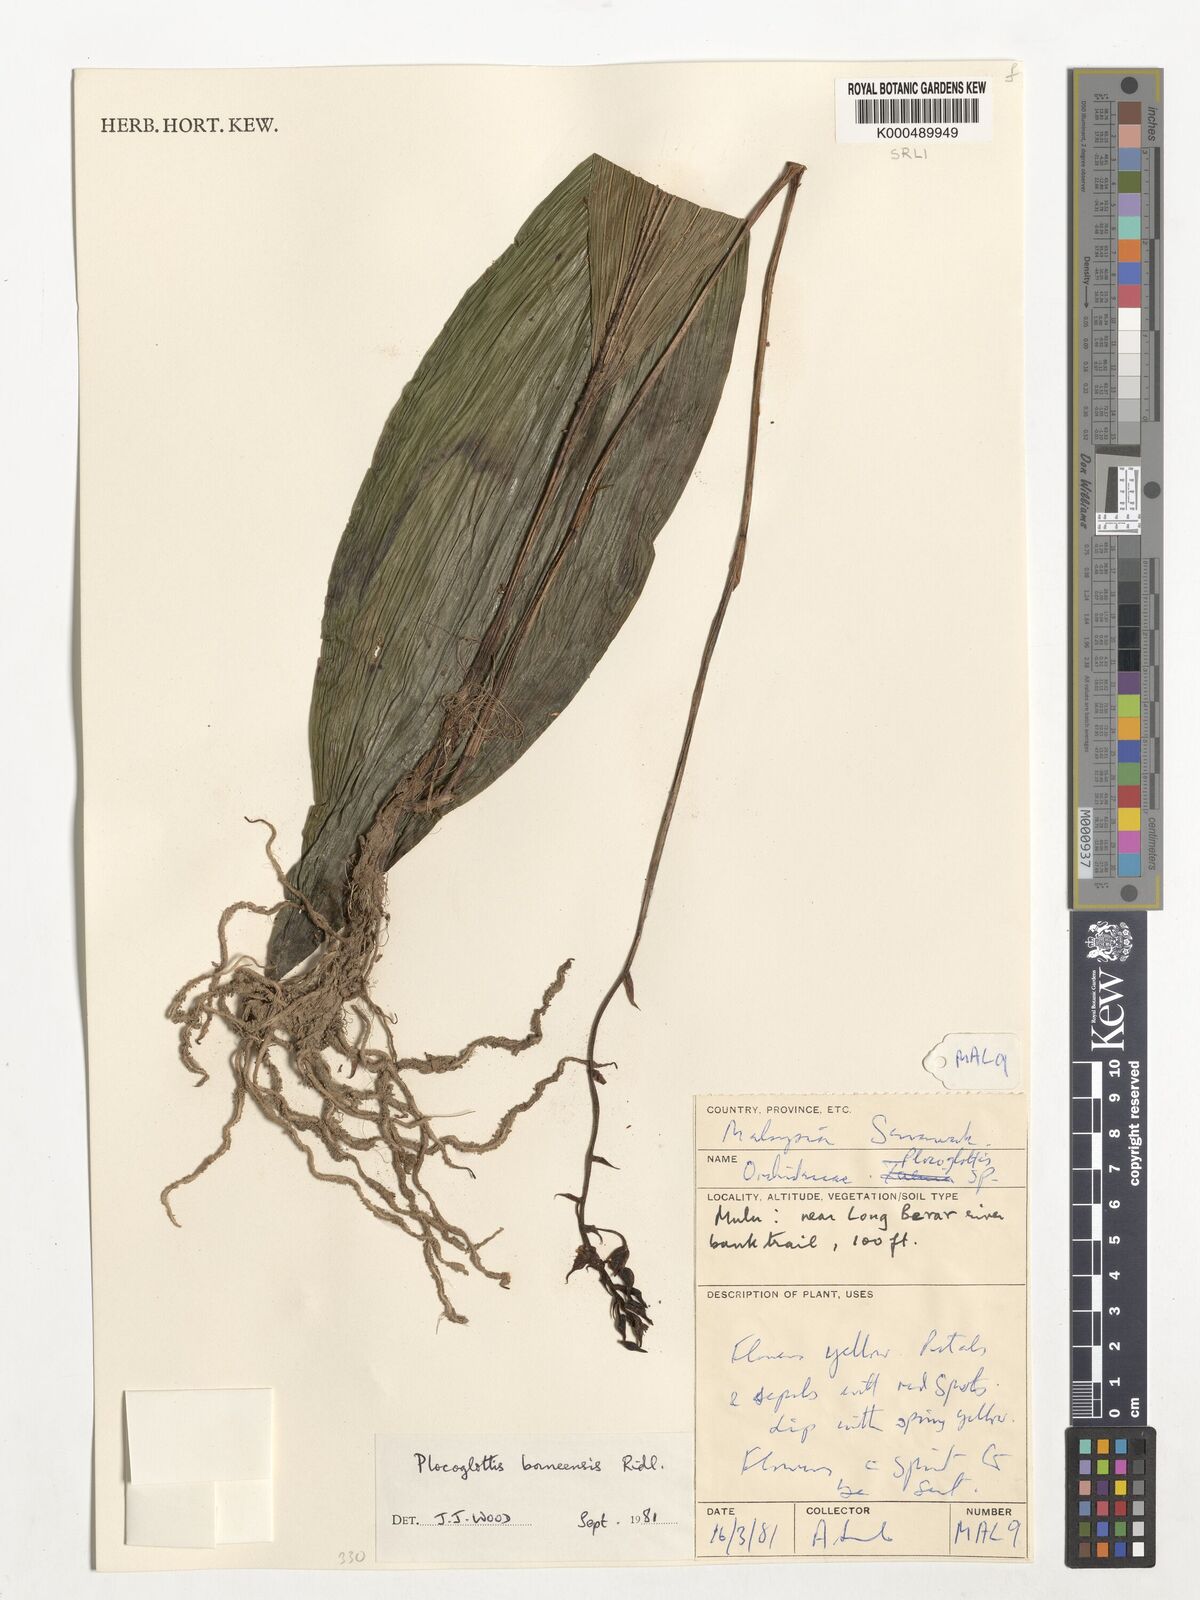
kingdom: Plantae
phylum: Tracheophyta
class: Liliopsida
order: Asparagales
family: Orchidaceae
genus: Plocoglottis
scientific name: Plocoglottis borneensis
